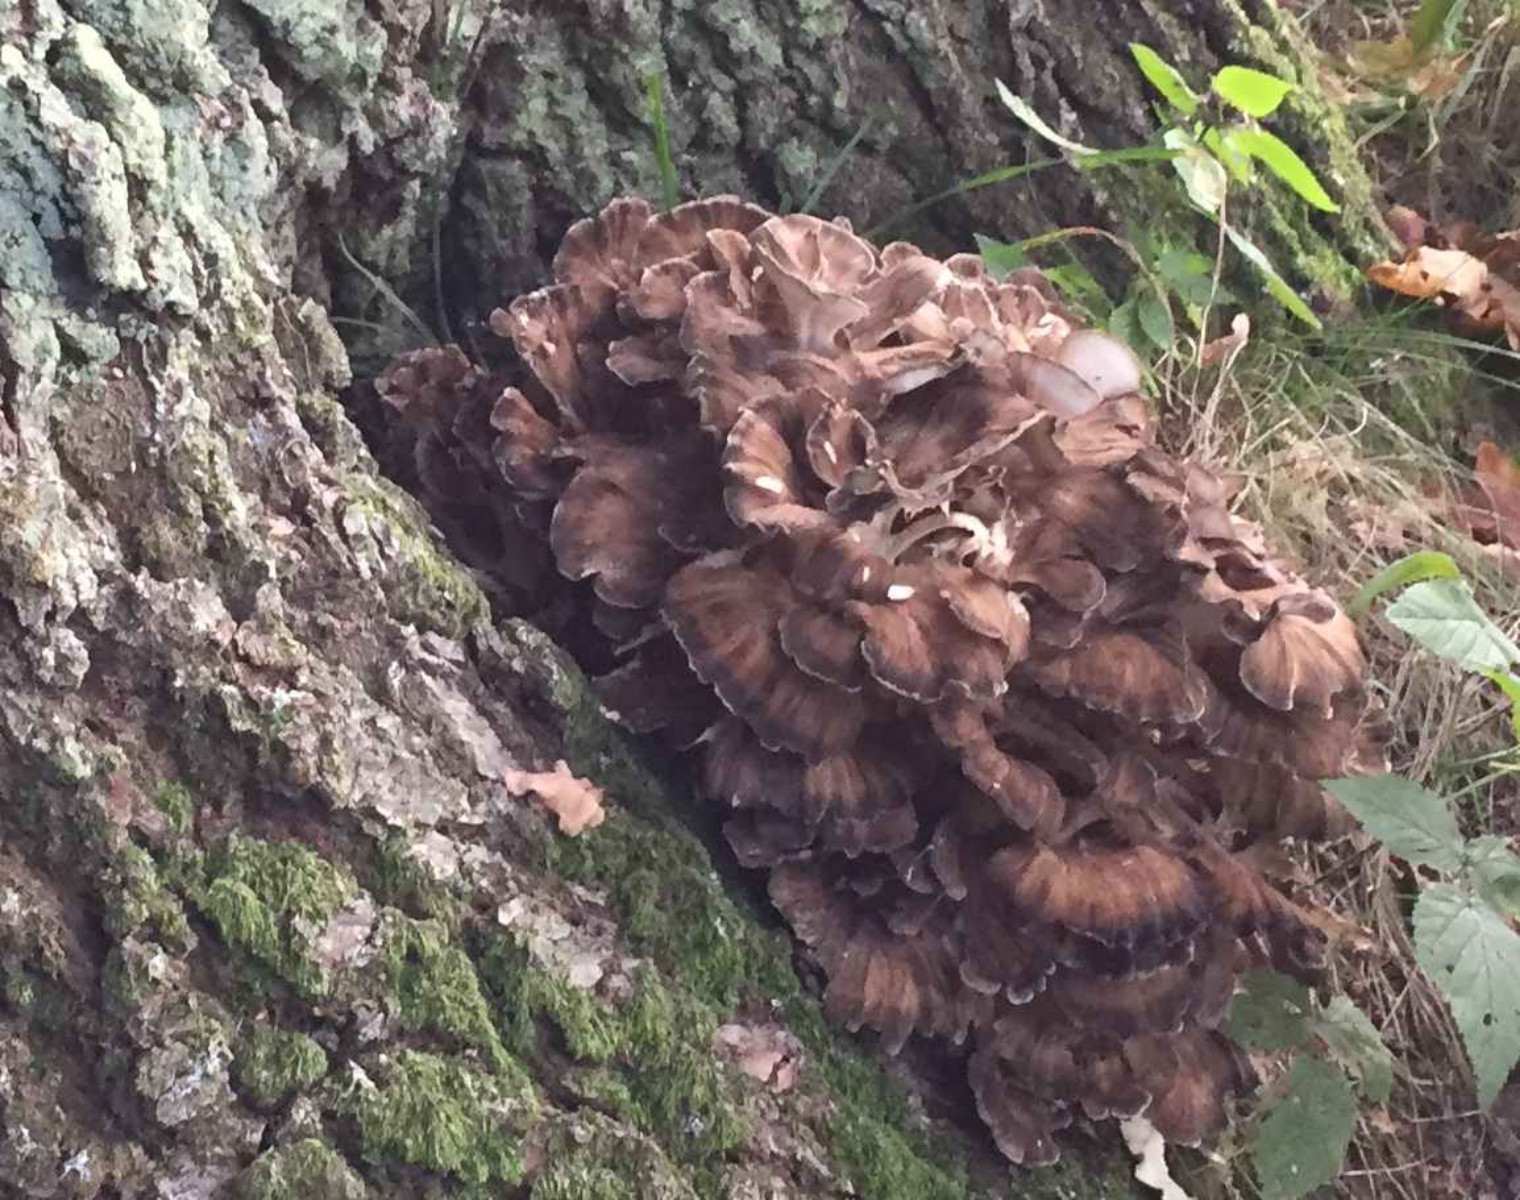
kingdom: Fungi
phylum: Basidiomycota
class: Agaricomycetes
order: Polyporales
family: Grifolaceae
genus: Grifola
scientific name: Grifola frondosa
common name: tueporesvamp
